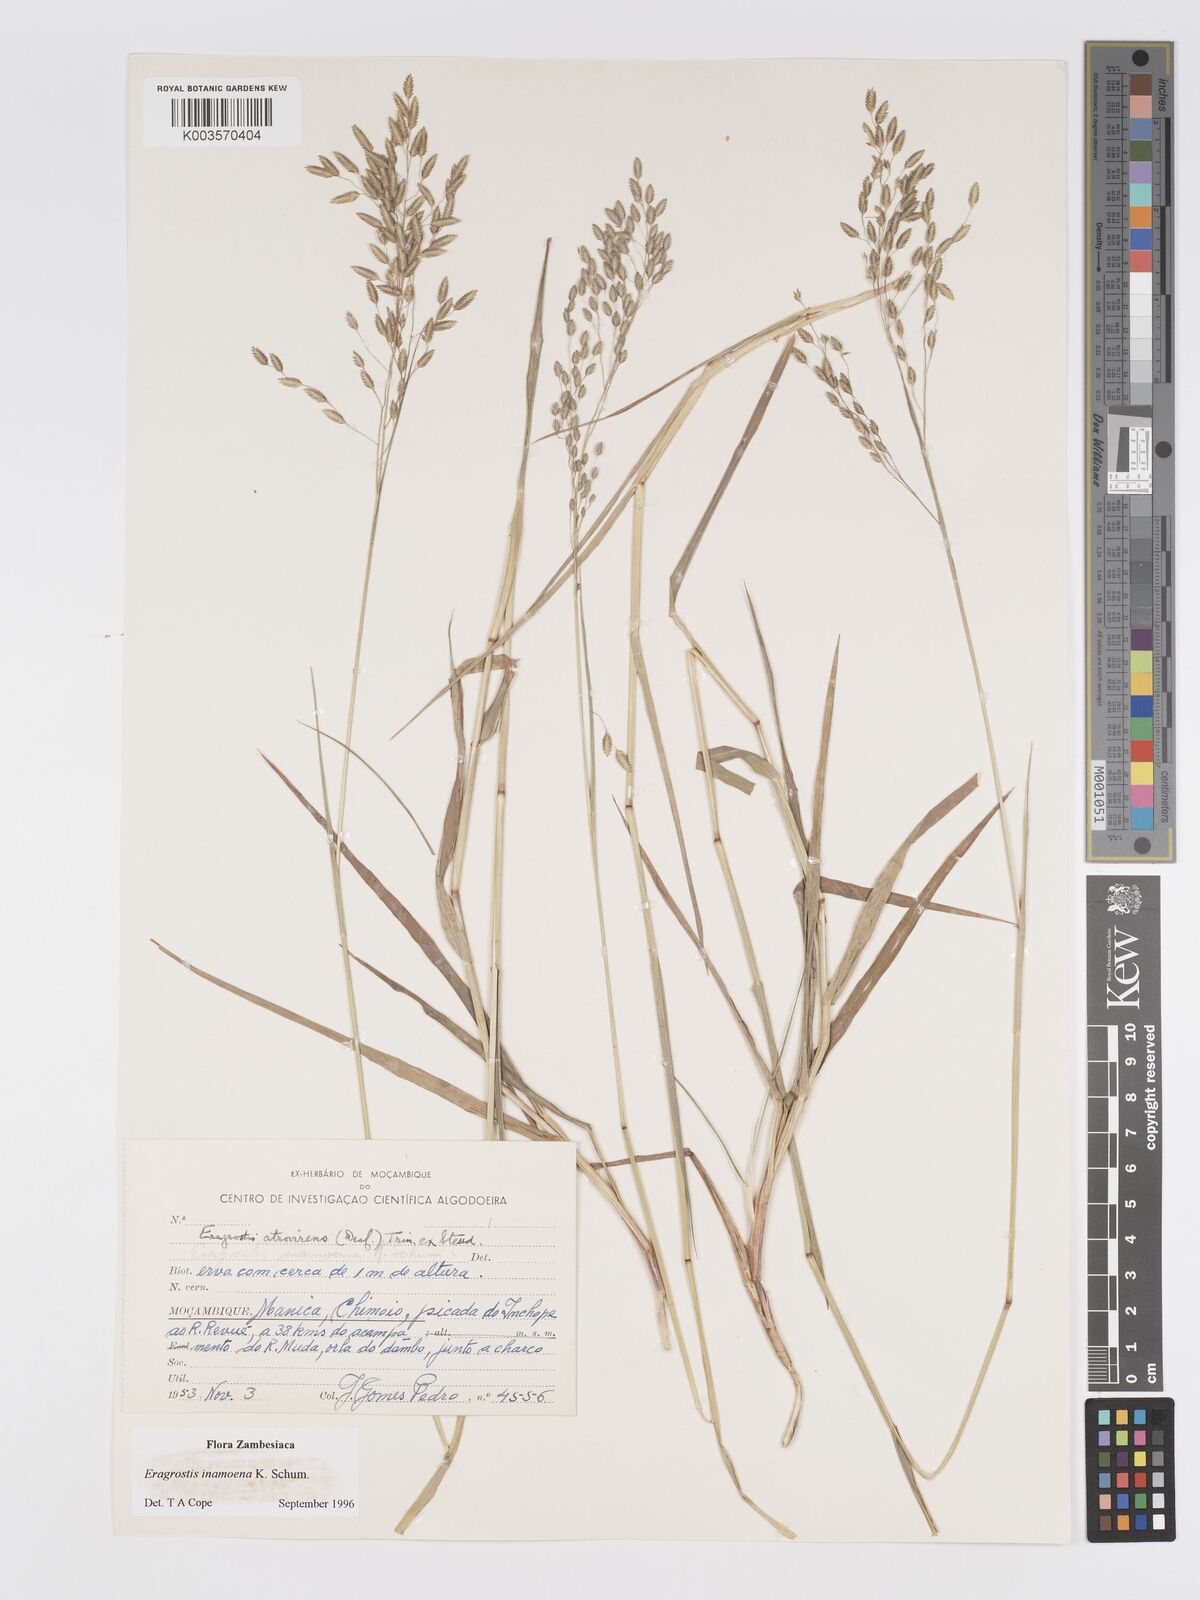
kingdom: Plantae
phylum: Tracheophyta
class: Liliopsida
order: Poales
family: Poaceae
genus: Eragrostis
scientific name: Eragrostis inamoena
